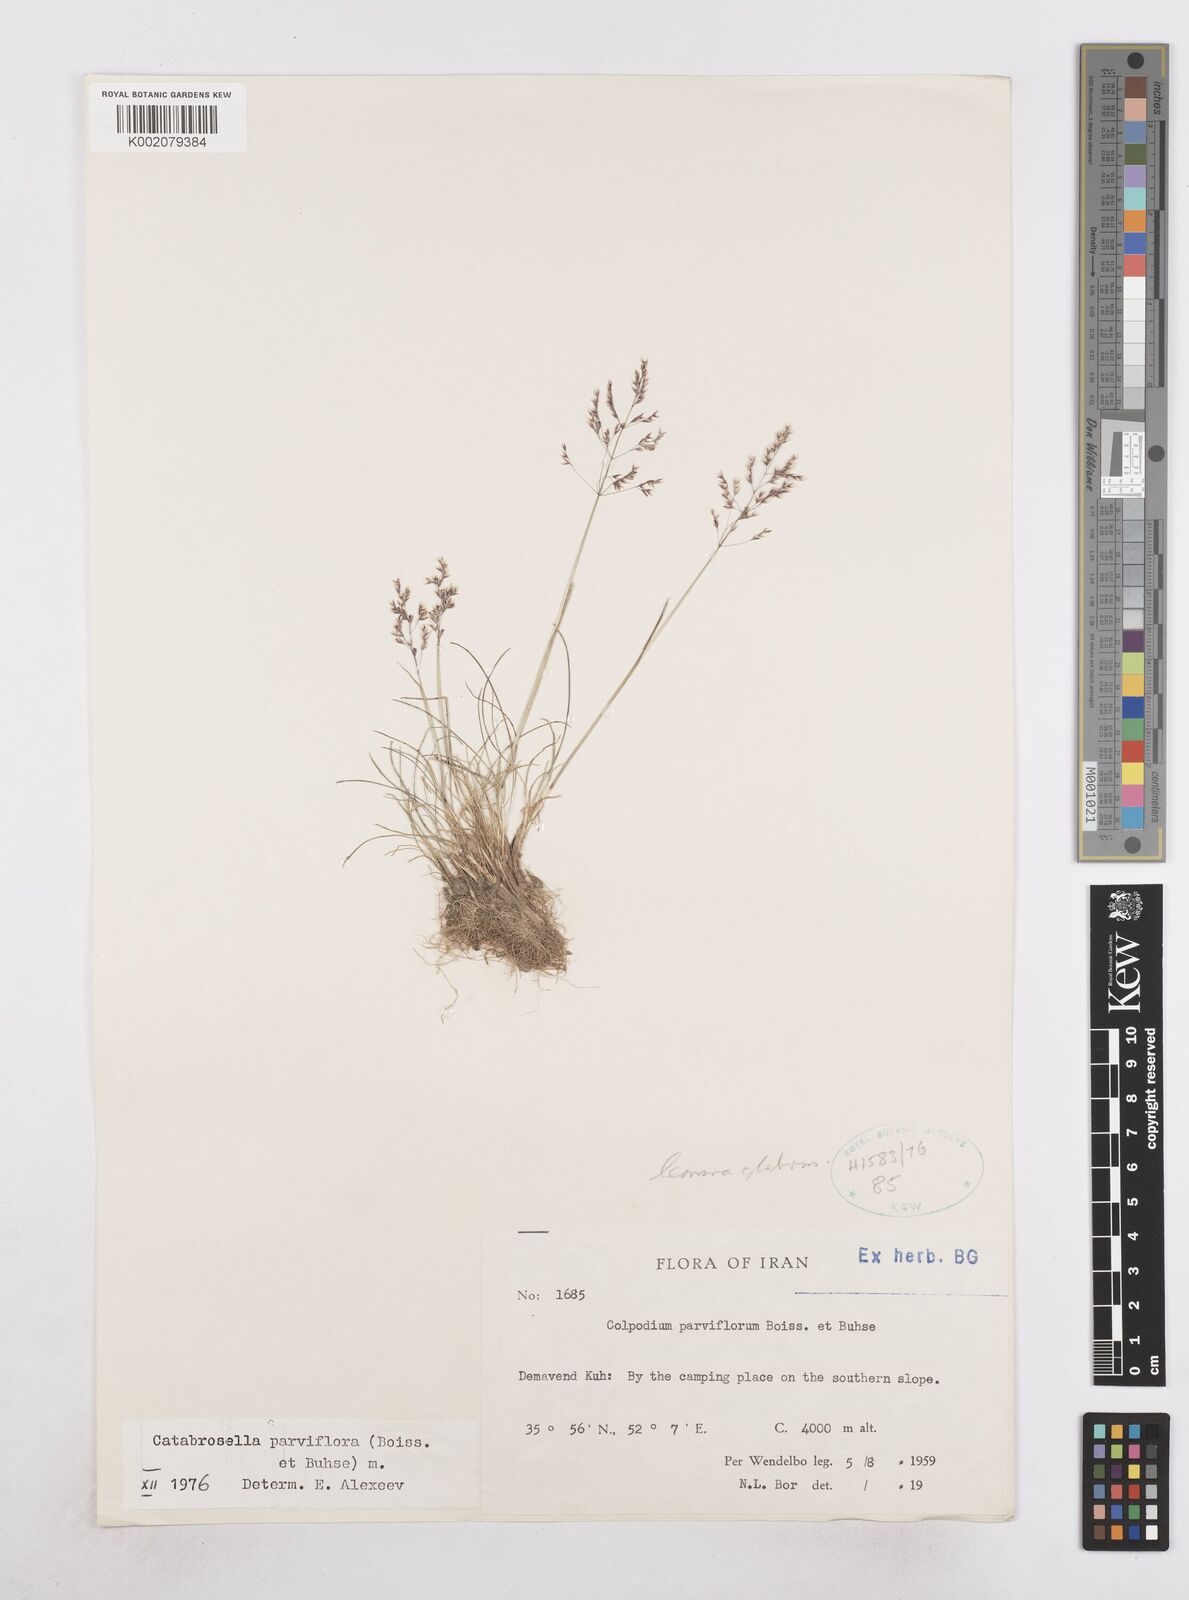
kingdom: Plantae
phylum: Tracheophyta
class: Liliopsida
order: Poales
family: Poaceae
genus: Catabrosella
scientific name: Catabrosella humilis
